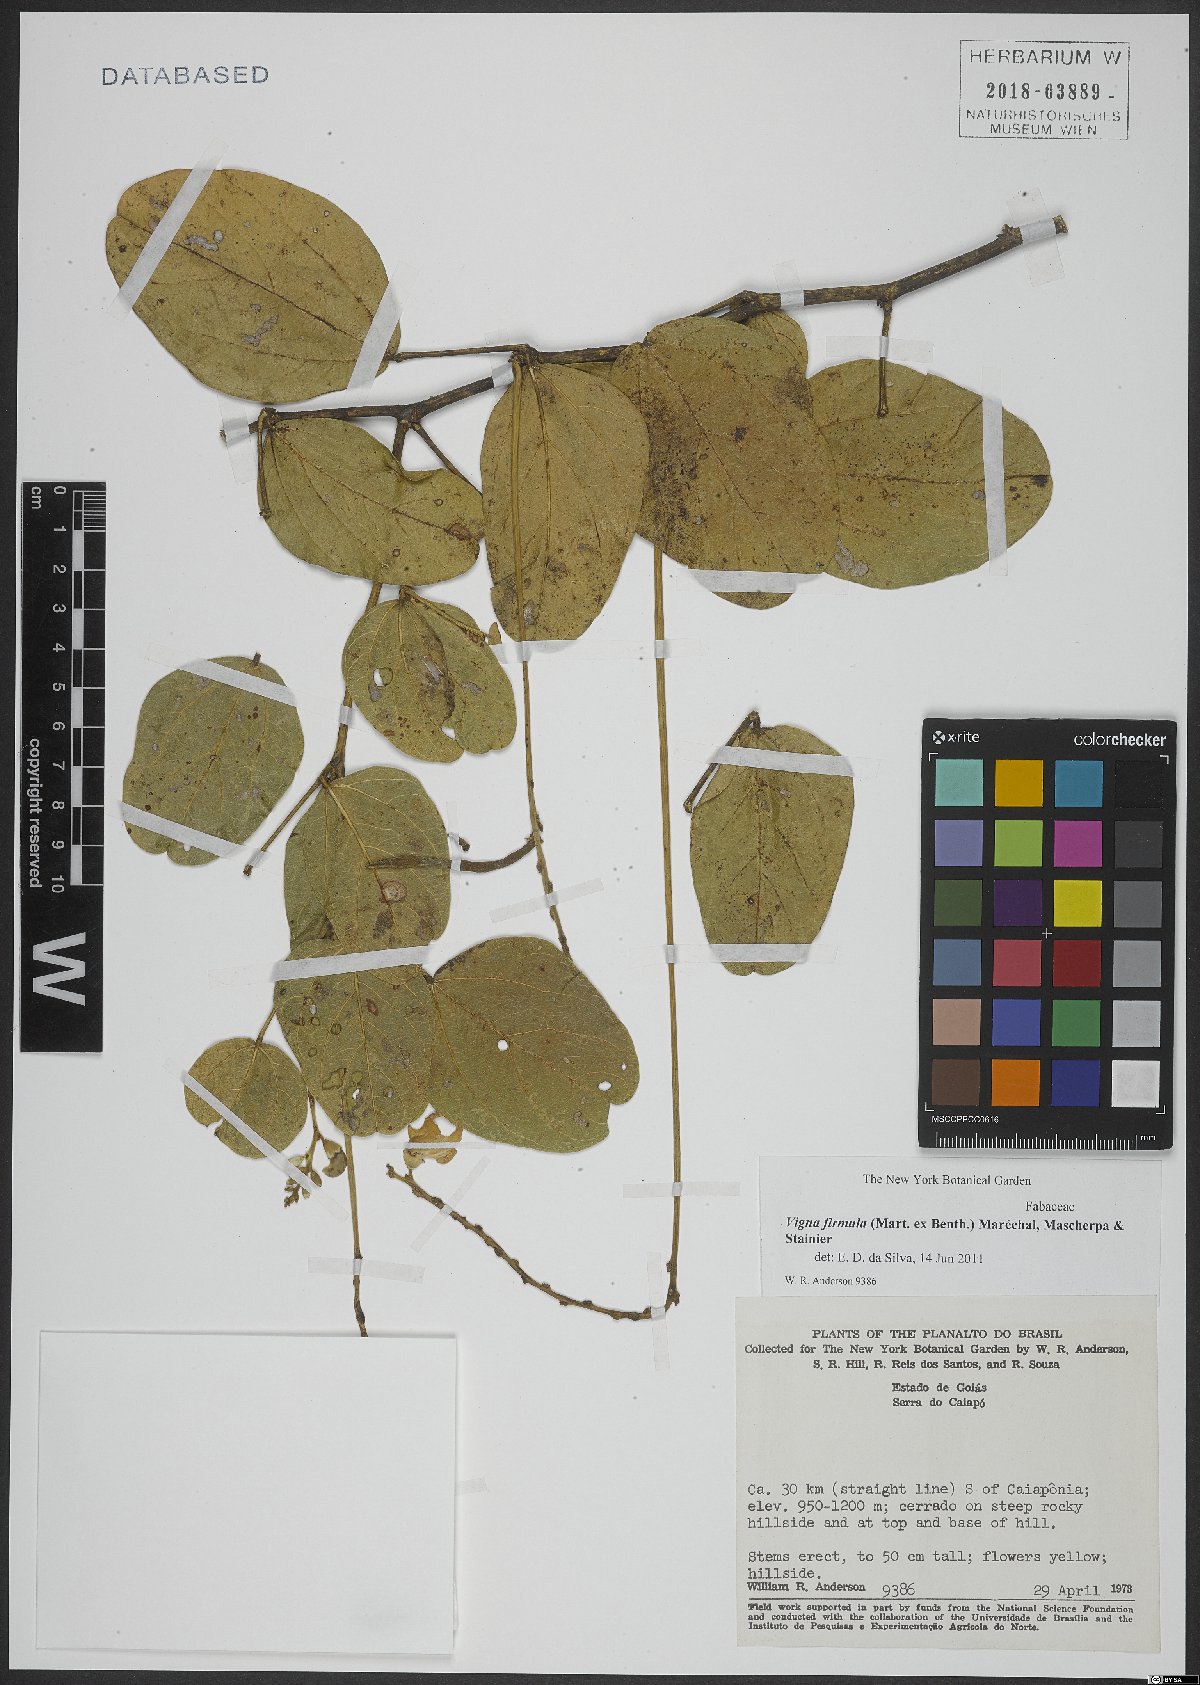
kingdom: Plantae
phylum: Tracheophyta
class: Magnoliopsida
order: Fabales
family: Fabaceae
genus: Ancistrotropis
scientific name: Ancistrotropis firmula
